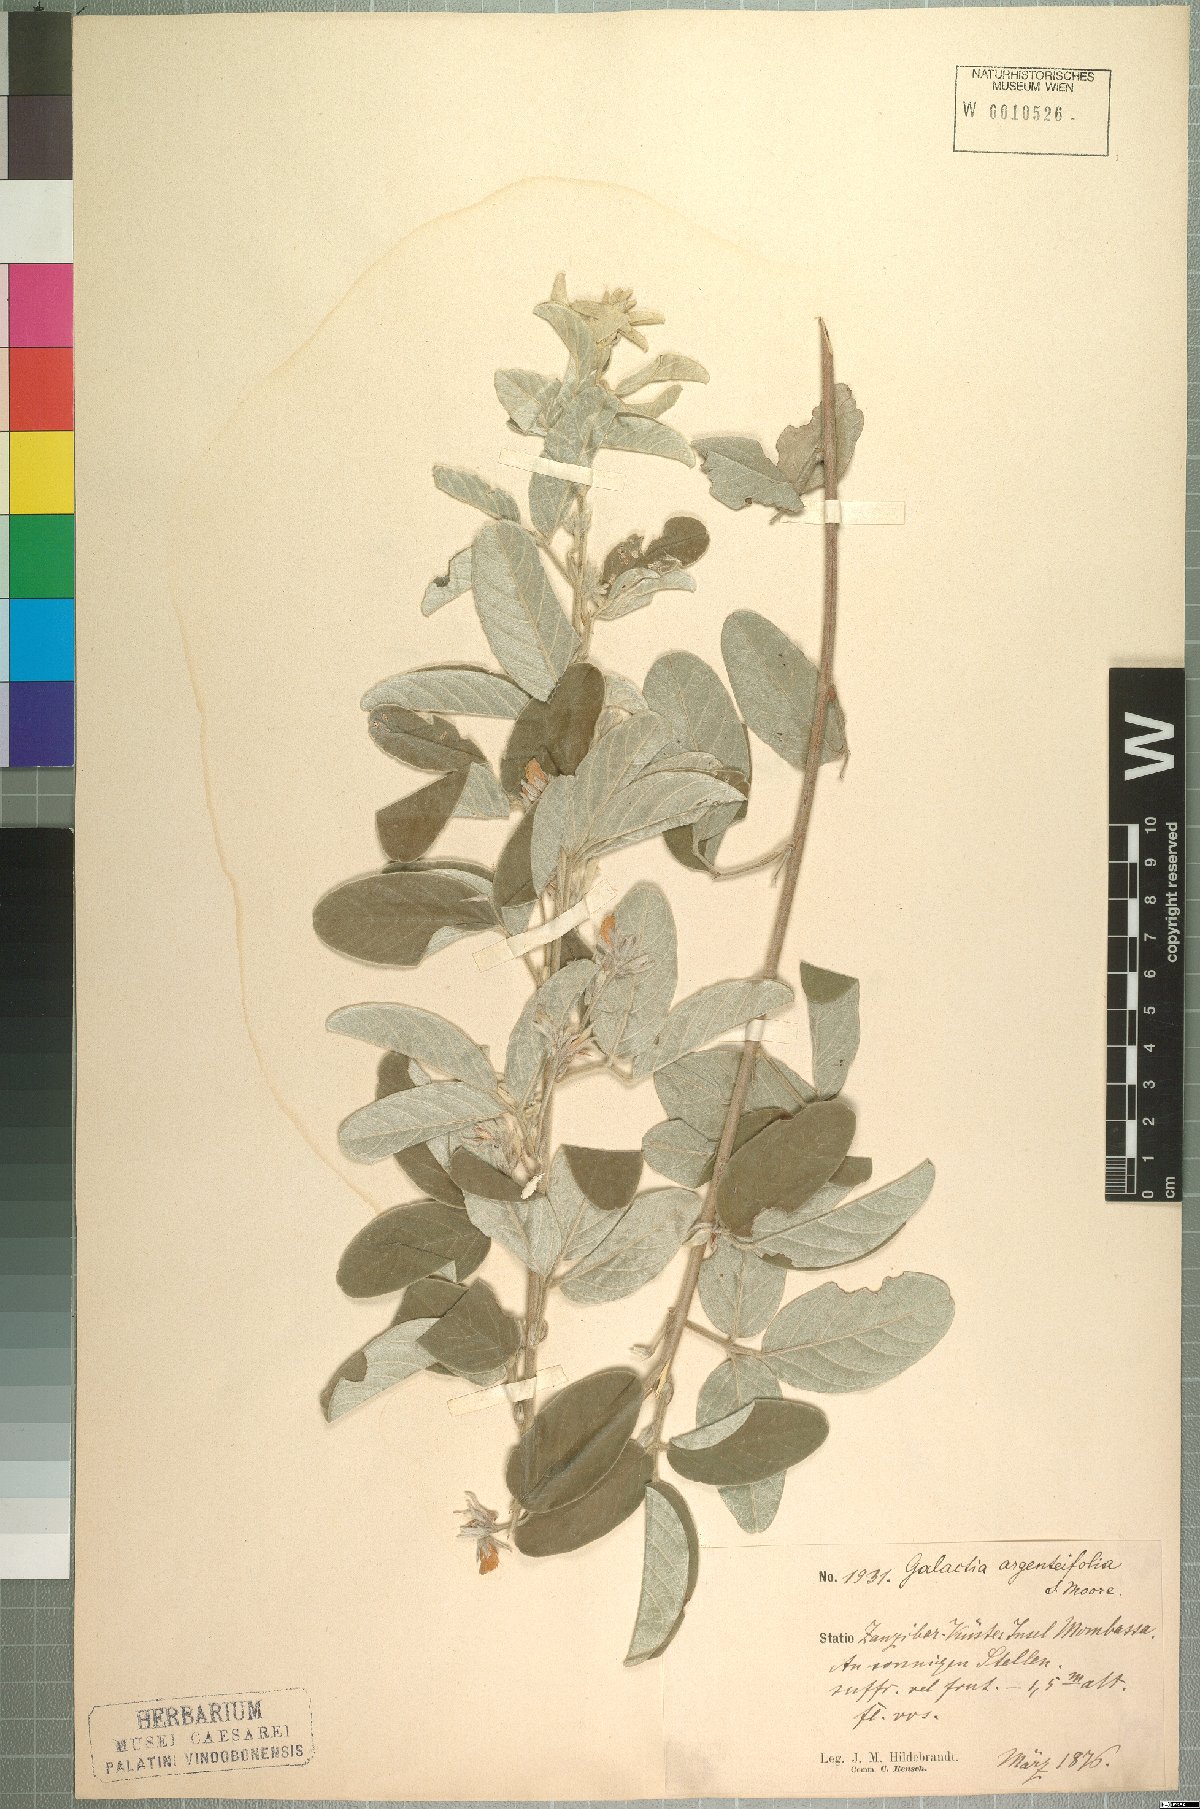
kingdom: Plantae
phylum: Tracheophyta
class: Magnoliopsida
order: Fabales
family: Fabaceae
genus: Galactia
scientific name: Galactia argentifolia
